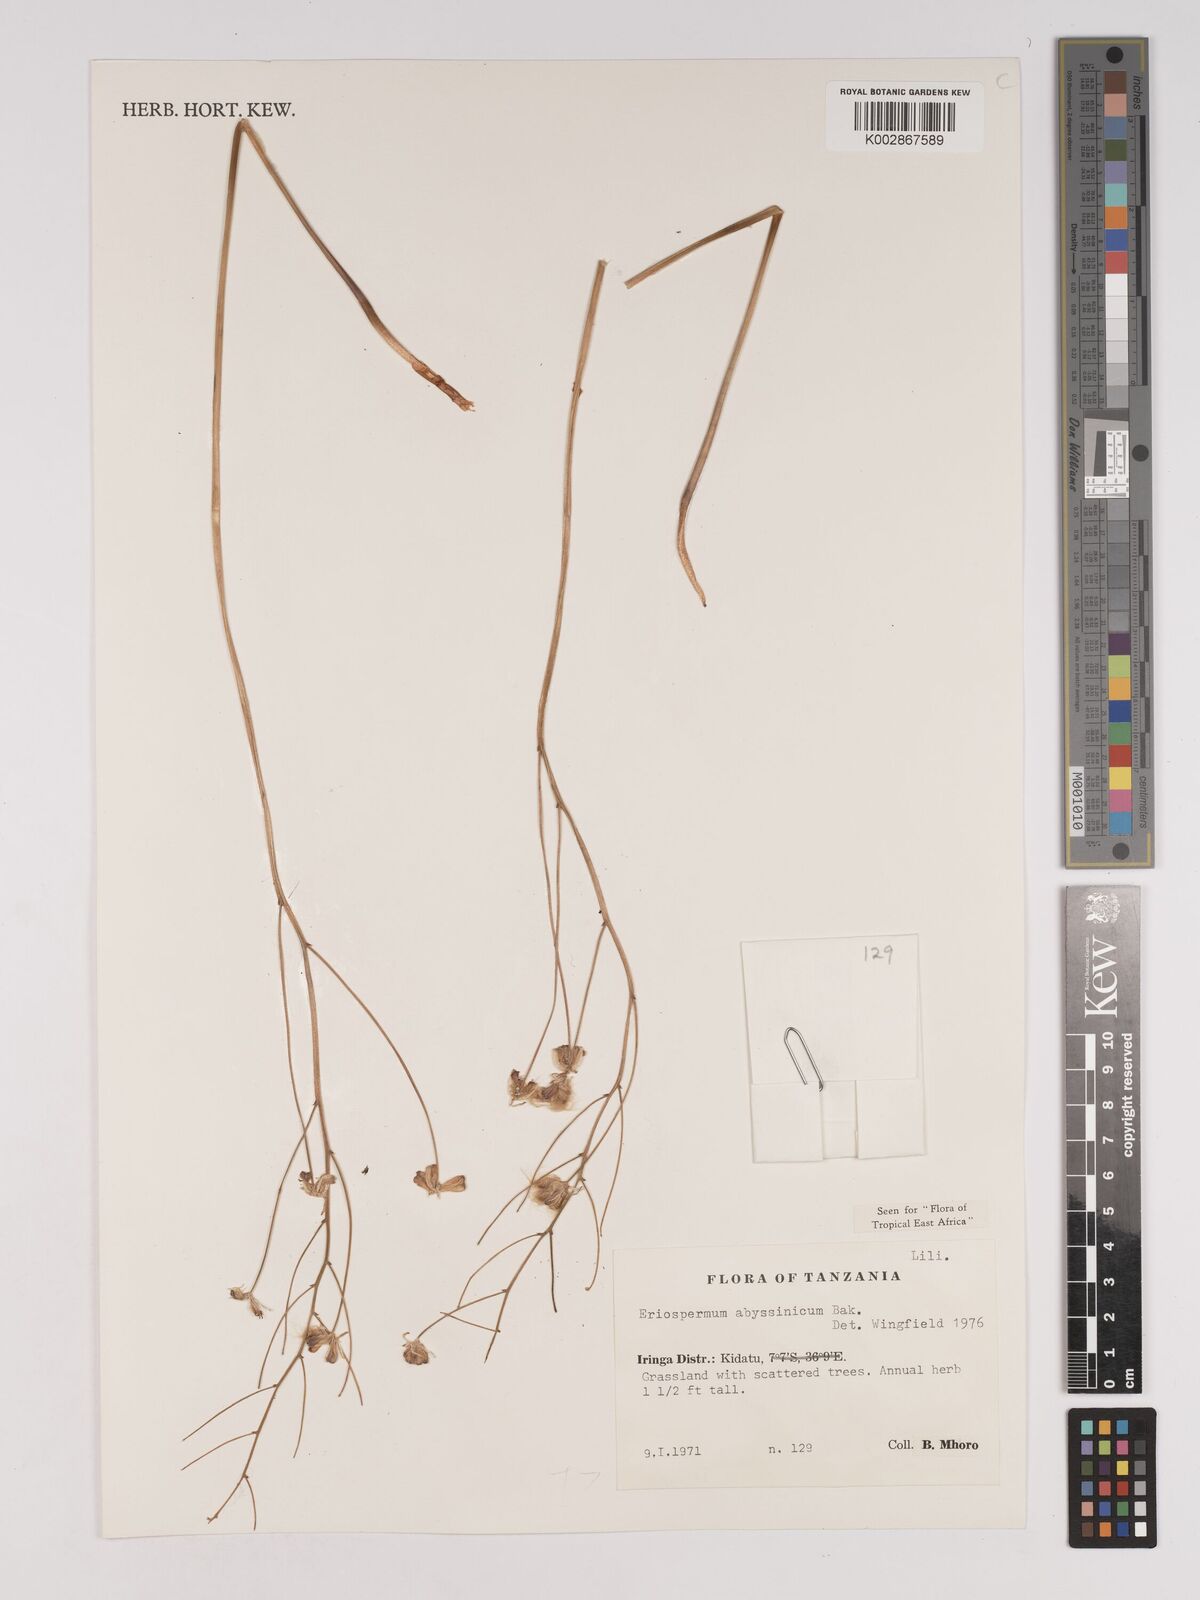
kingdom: Plantae
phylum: Tracheophyta
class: Liliopsida
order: Asparagales
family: Asparagaceae
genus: Eriospermum
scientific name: Eriospermum abyssinicum
